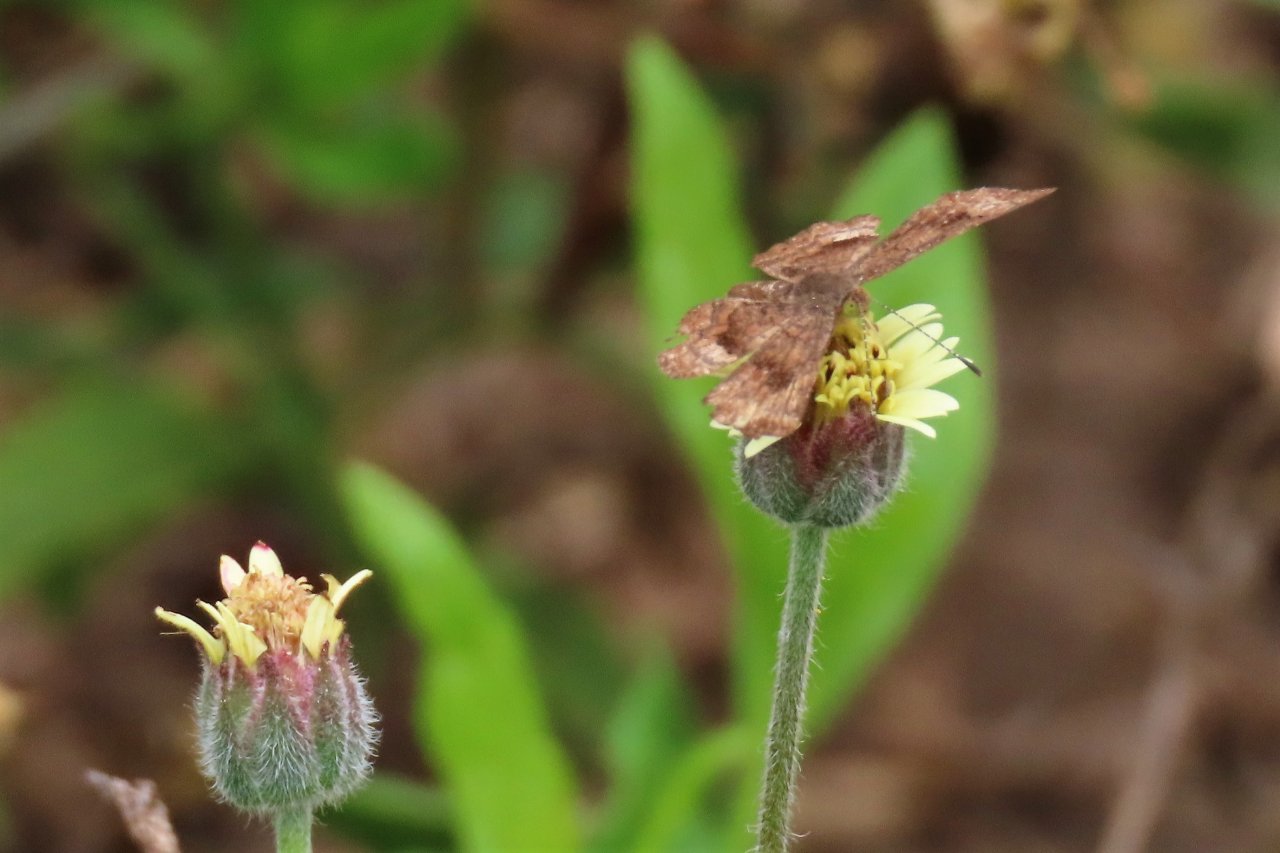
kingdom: Animalia
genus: Calephelis
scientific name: Calephelis nemesis
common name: Fatal Metalmark
